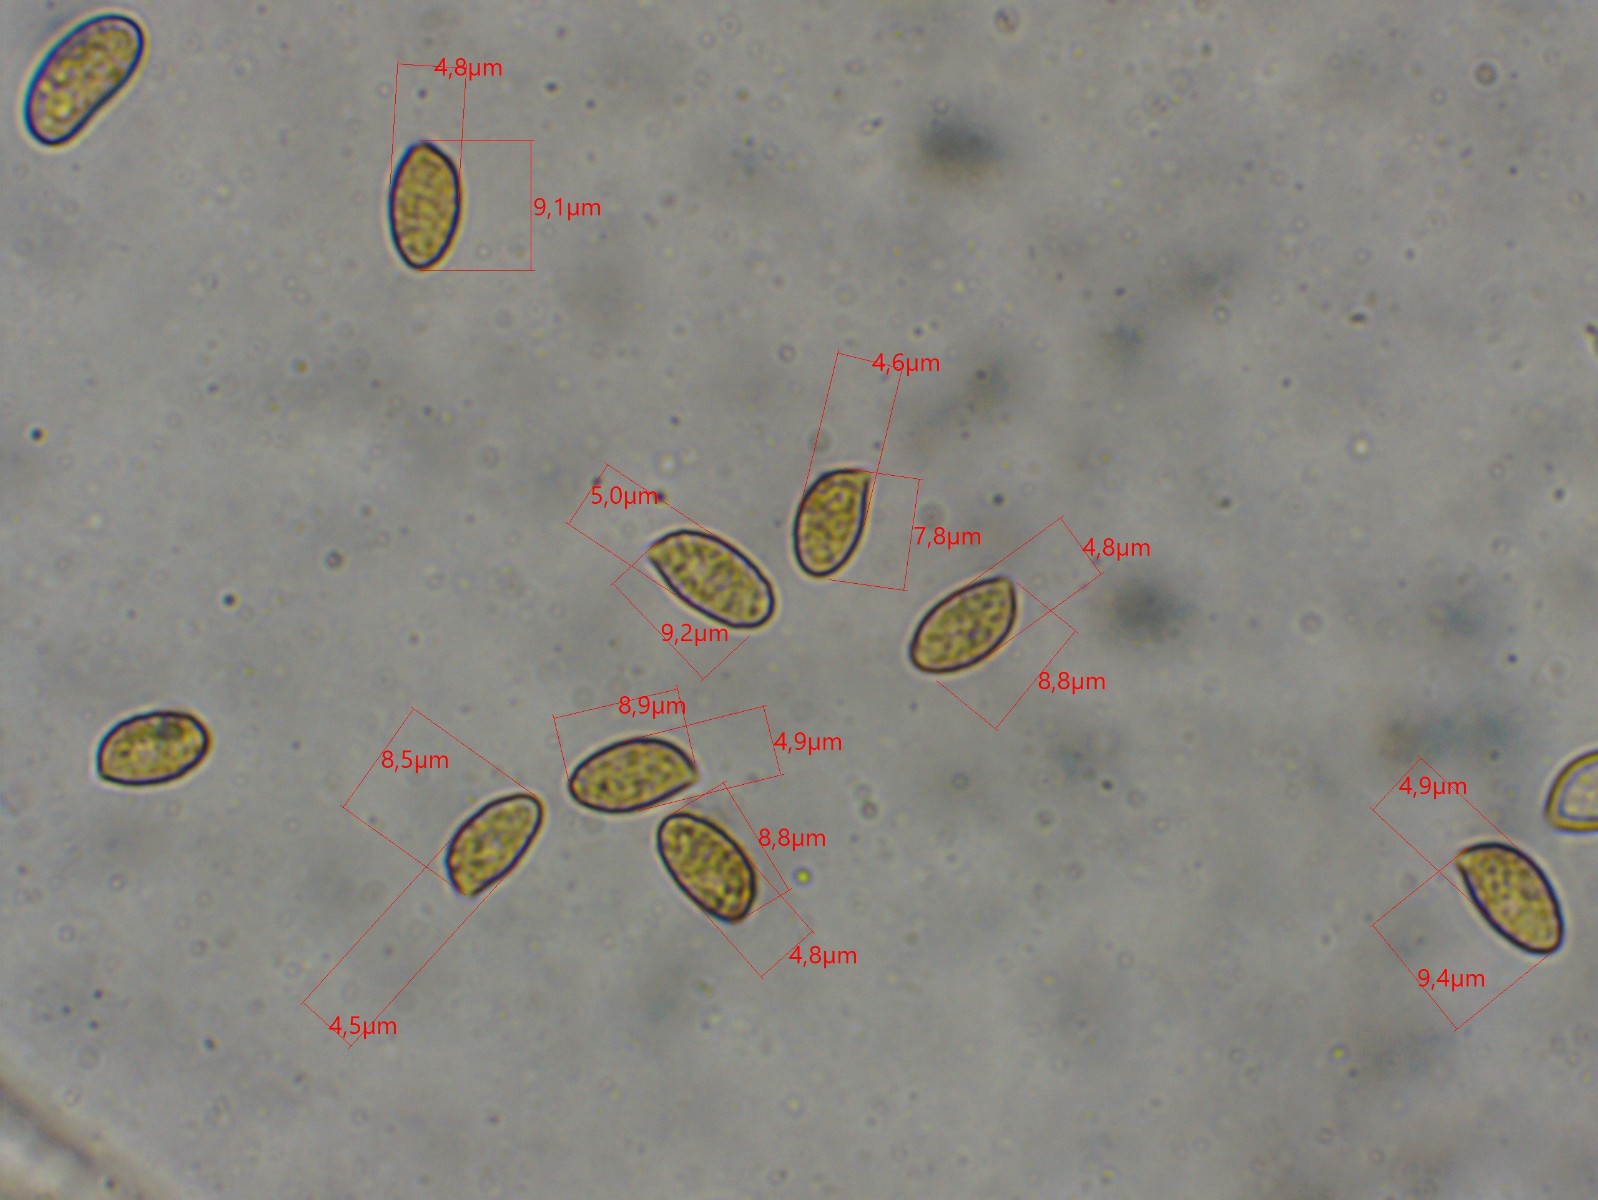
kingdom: Fungi
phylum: Basidiomycota
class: Agaricomycetes
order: Agaricales
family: Cortinariaceae
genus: Cortinarius
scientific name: Cortinarius
